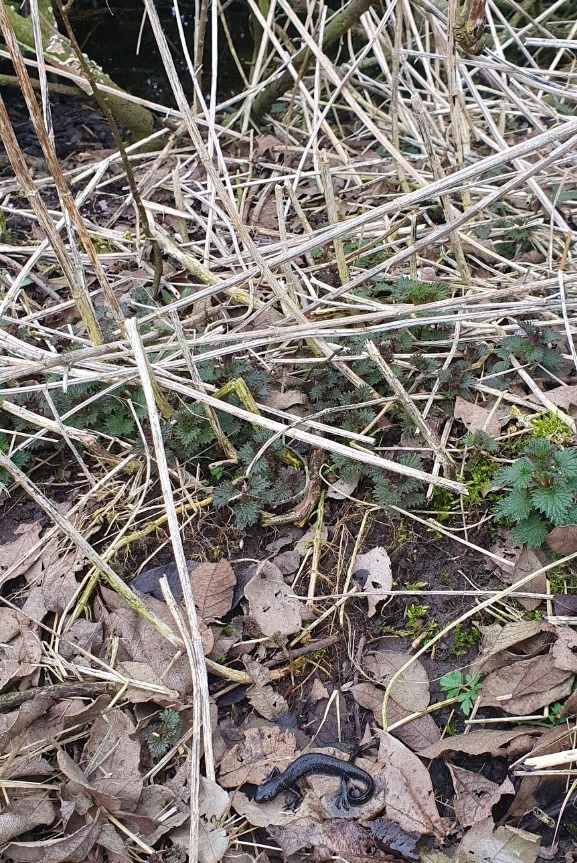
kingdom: Animalia
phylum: Chordata
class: Amphibia
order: Caudata
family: Salamandridae
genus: Triturus
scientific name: Triturus cristatus
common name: Stor vandsalamander
